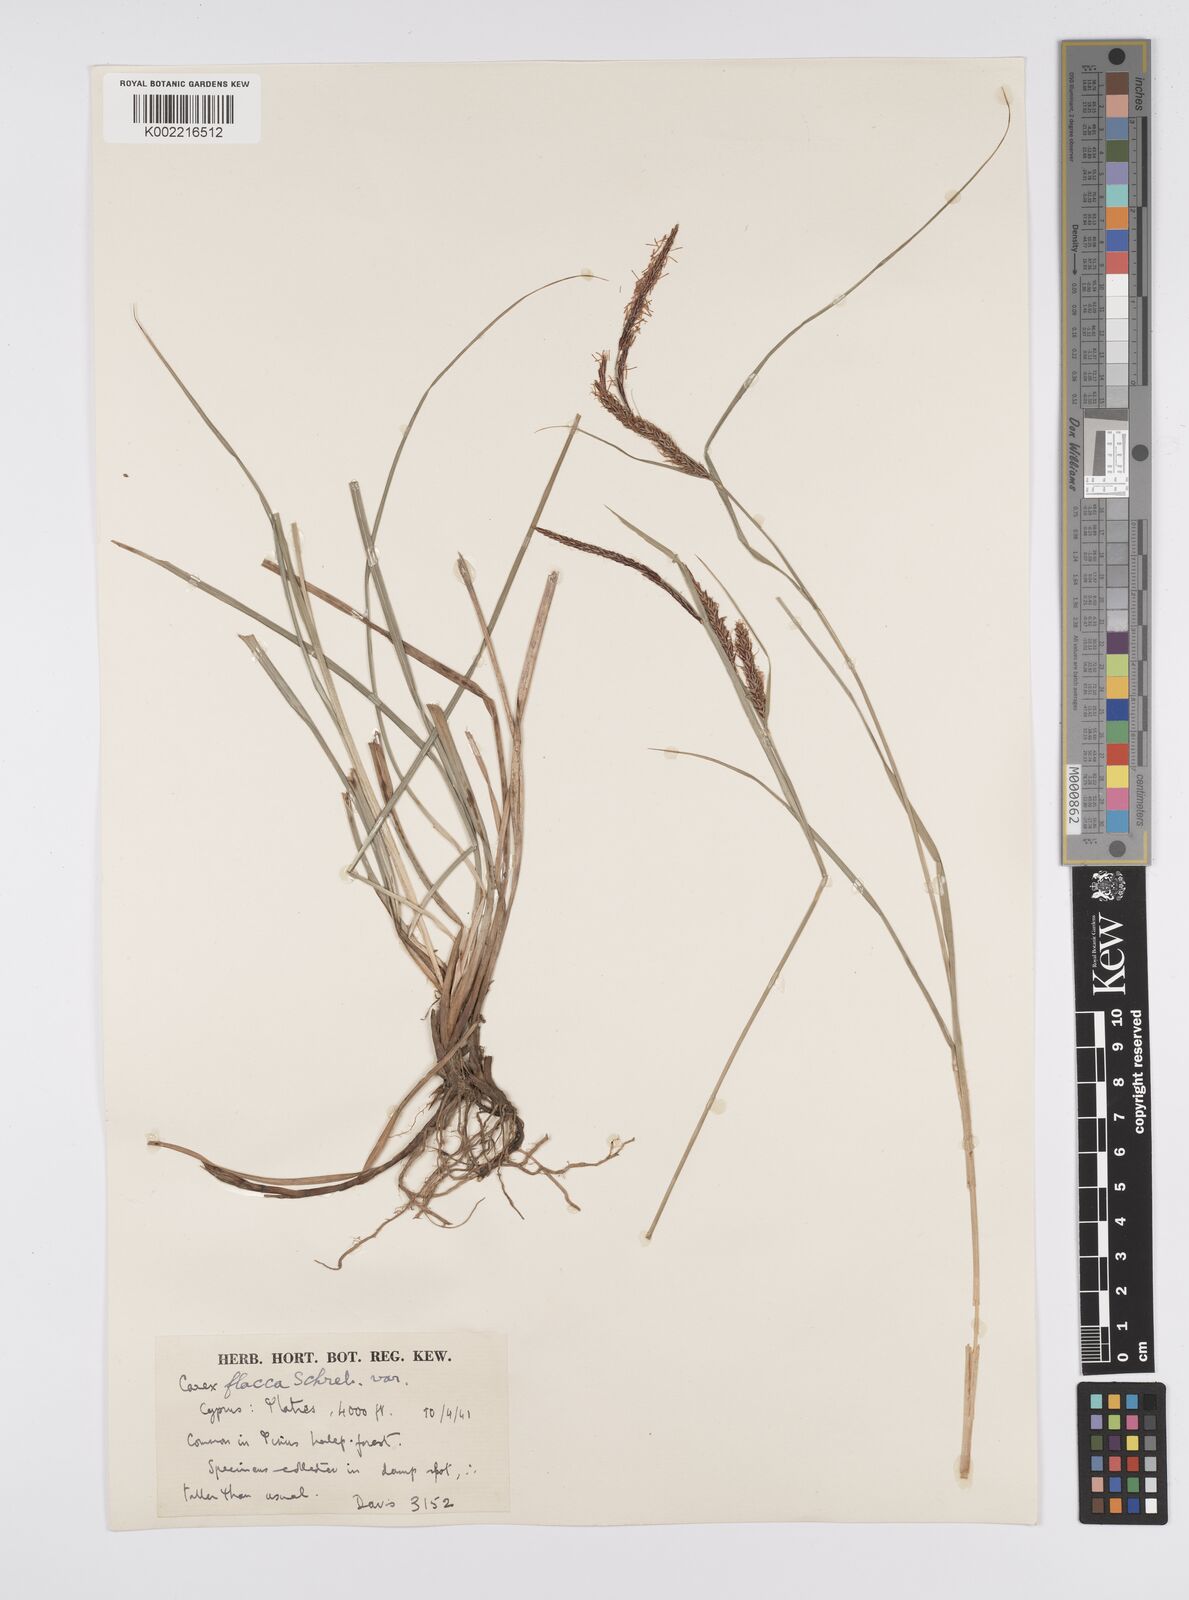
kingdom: Plantae
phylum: Tracheophyta
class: Liliopsida
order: Poales
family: Cyperaceae
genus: Carex
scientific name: Carex flacca
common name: Glaucous sedge
